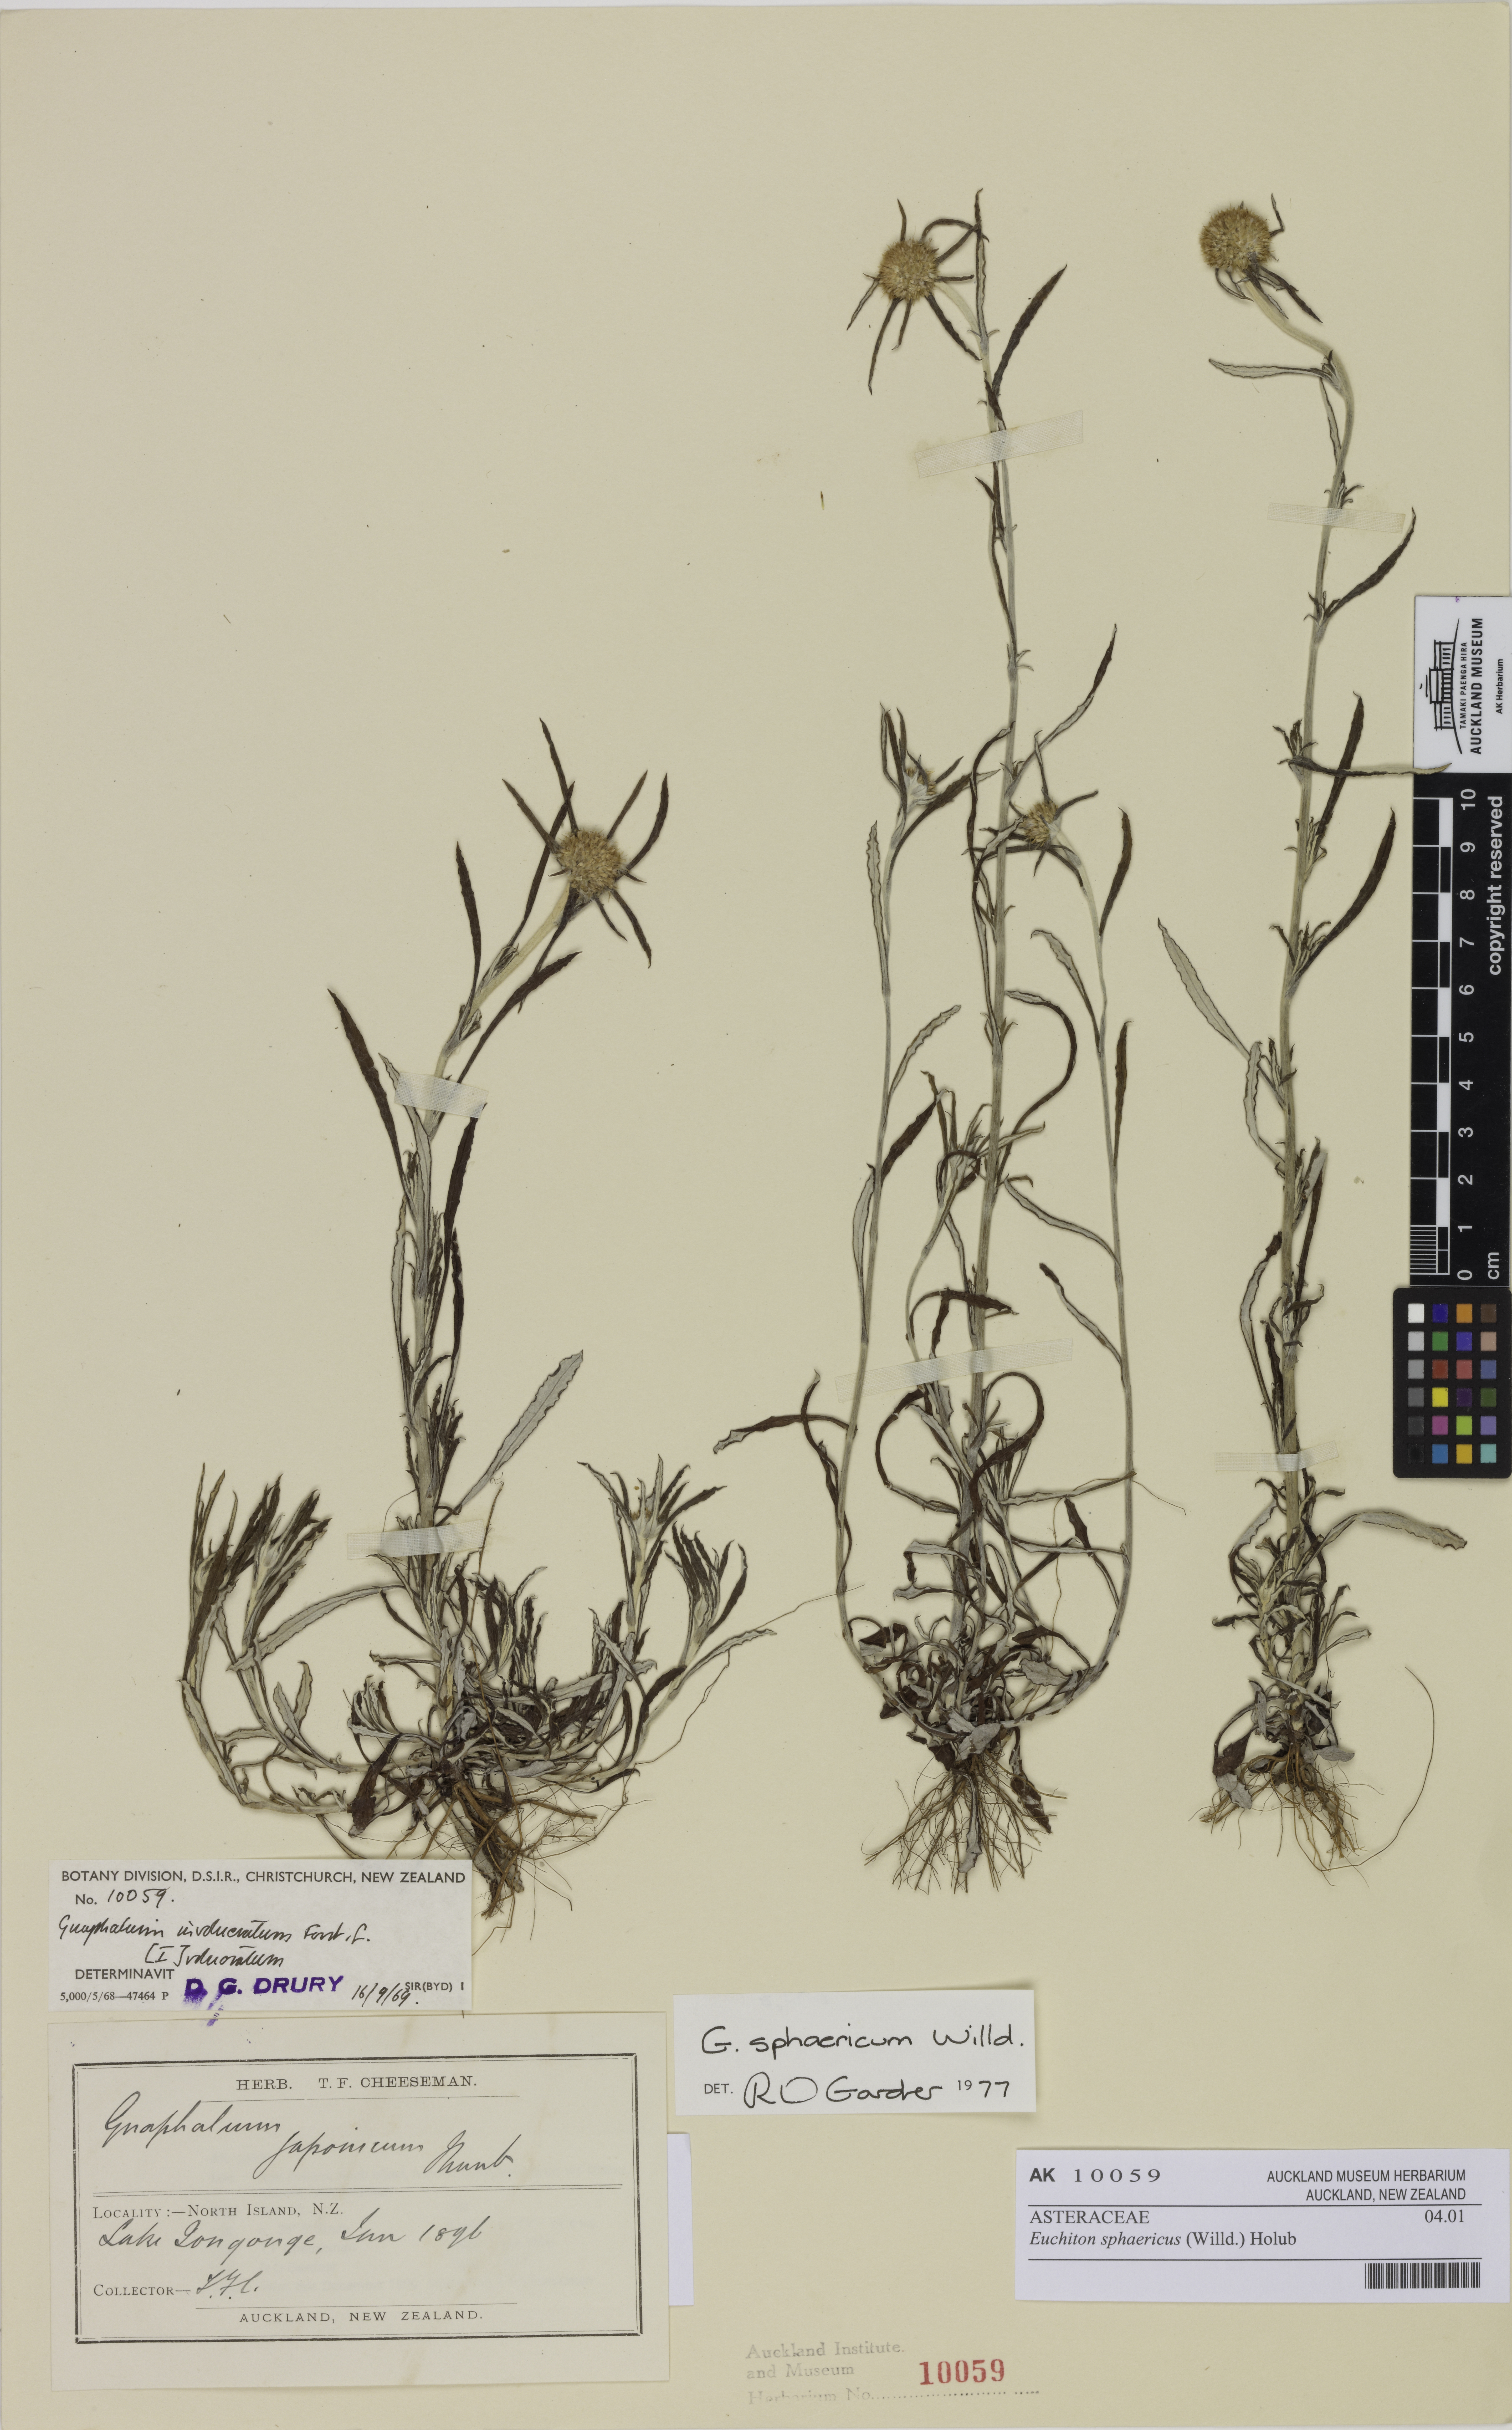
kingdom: Plantae
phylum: Tracheophyta
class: Magnoliopsida
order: Asterales
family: Asteraceae
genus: Euchiton
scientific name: Euchiton sphaericus
